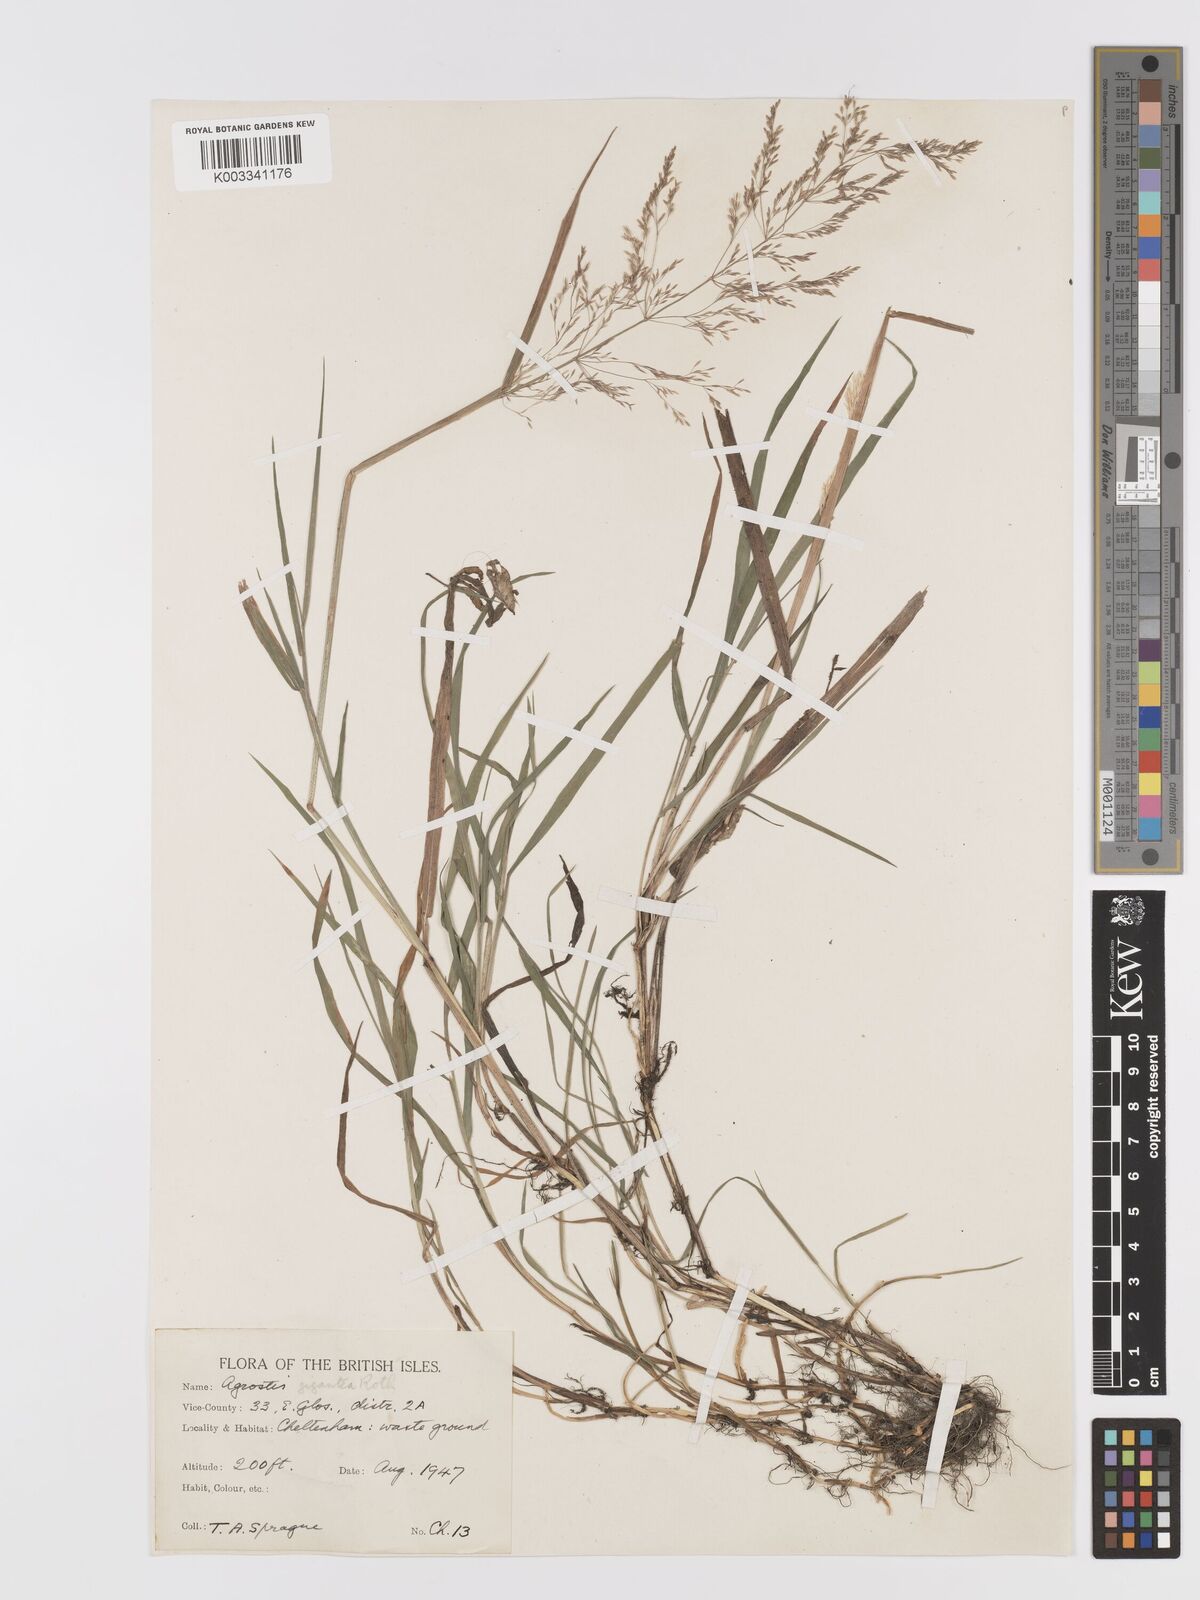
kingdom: Plantae
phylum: Tracheophyta
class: Liliopsida
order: Poales
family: Poaceae
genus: Agrostis
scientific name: Agrostis gigantea
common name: Black bent
